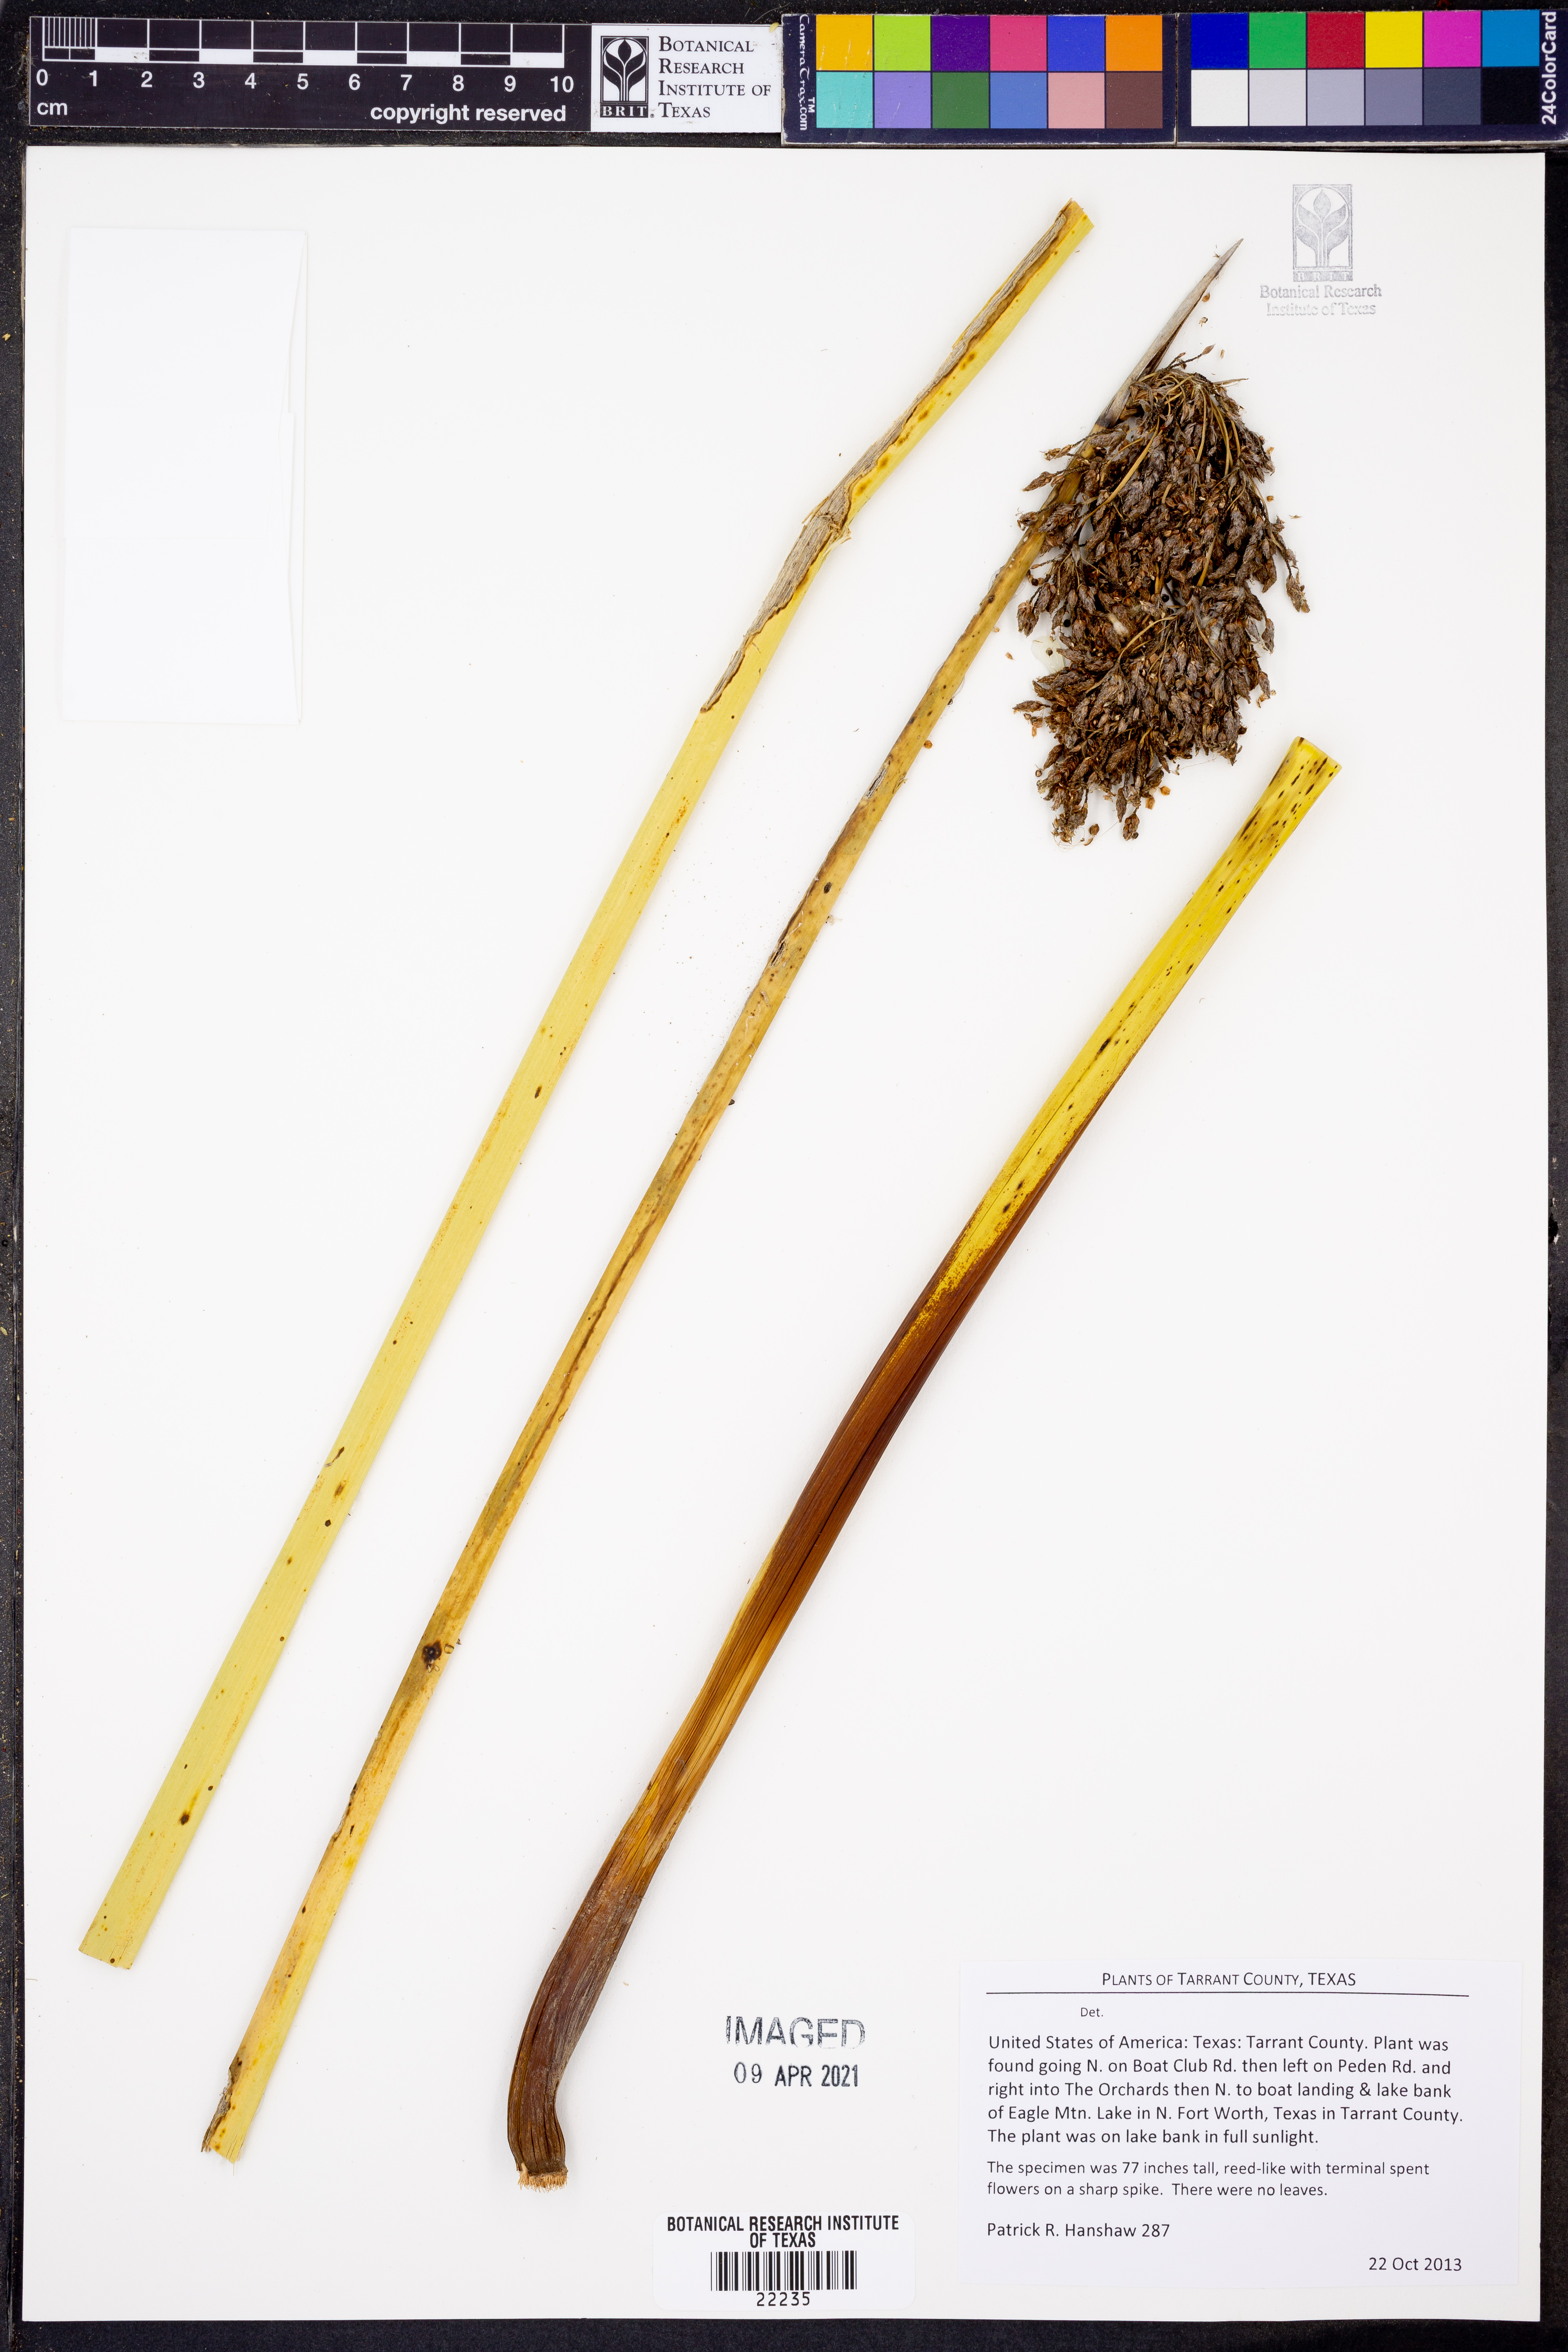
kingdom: Plantae
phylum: Tracheophyta
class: Liliopsida
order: Poales
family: Cyperaceae
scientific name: Cyperaceae
